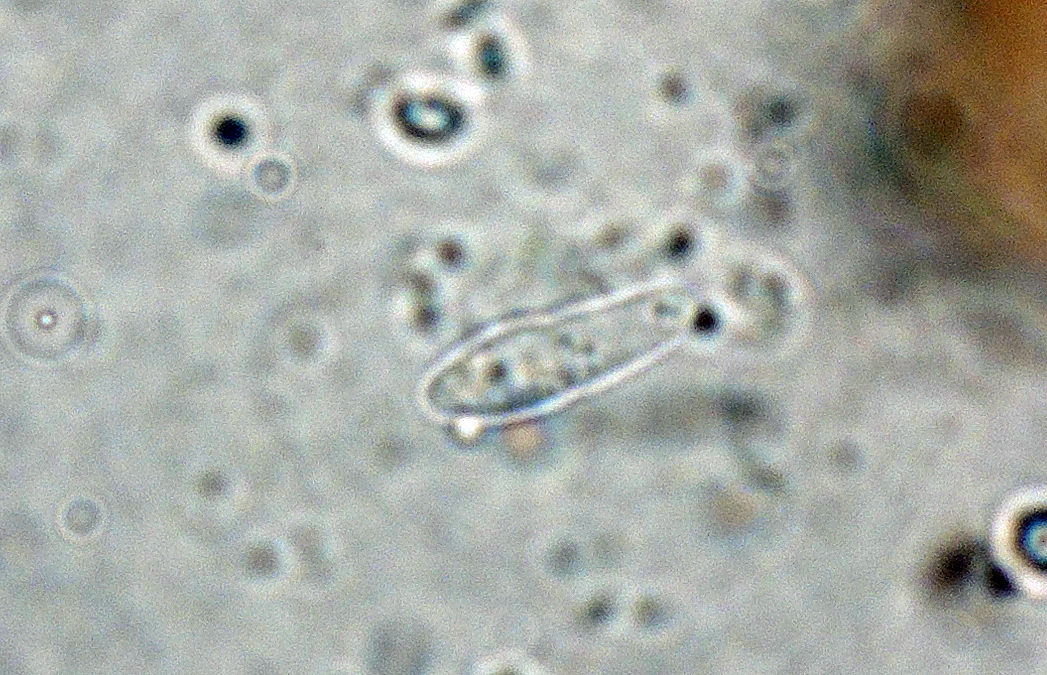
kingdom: Fungi
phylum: Ascomycota
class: Dothideomycetes
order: Mycosphaerellales
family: Mycosphaerellaceae
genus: Mycosphaerella
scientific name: Mycosphaerella aspidii
